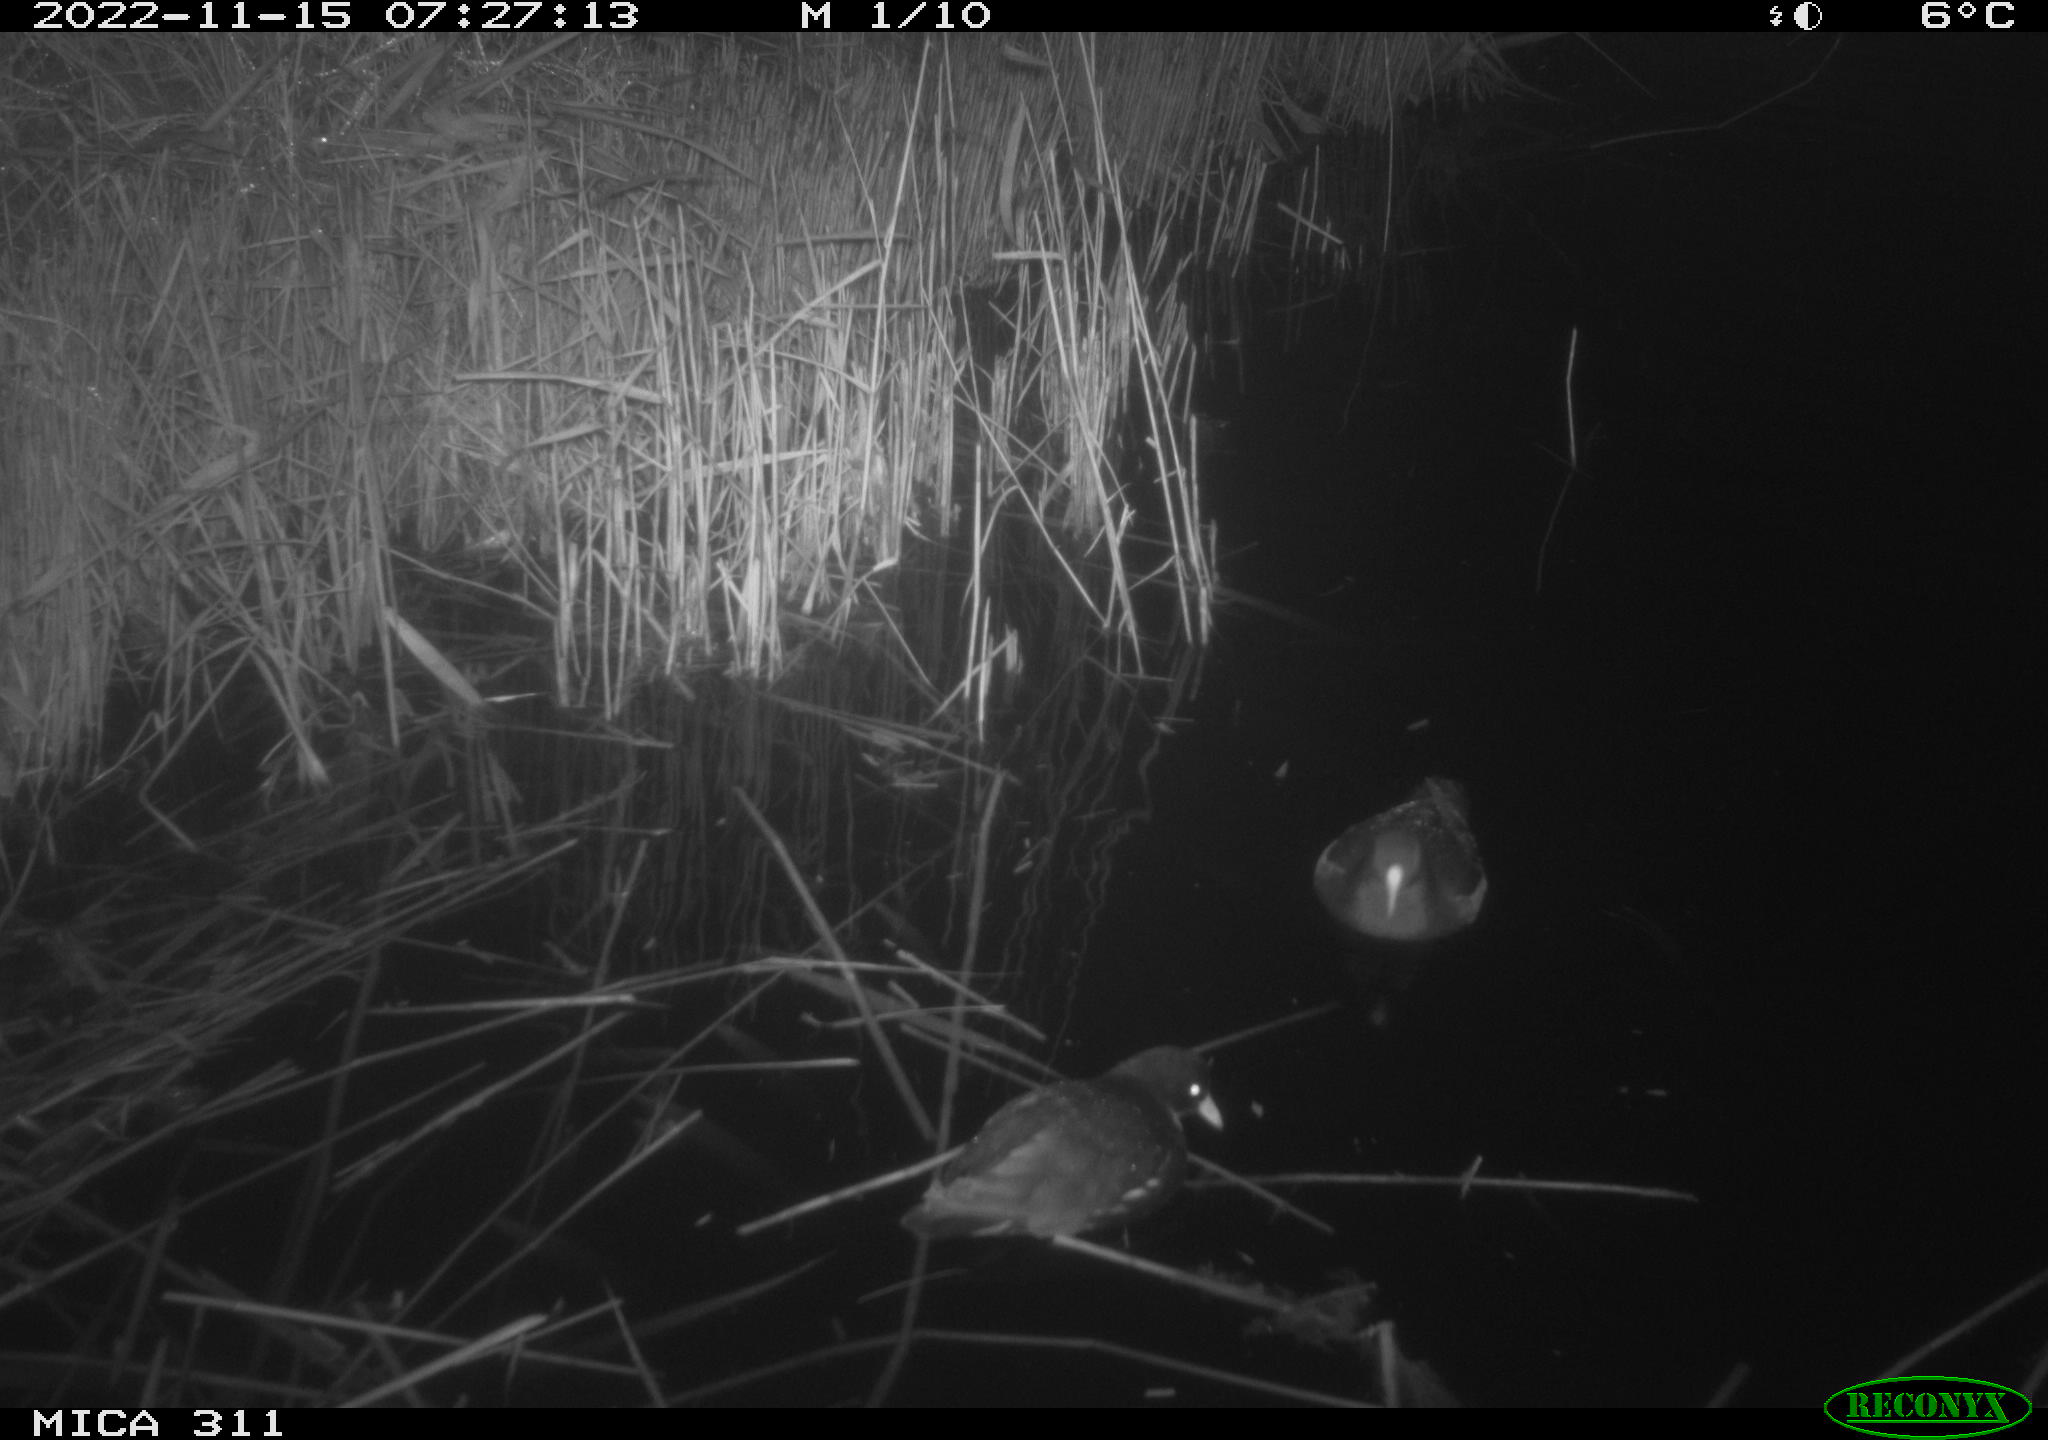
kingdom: Animalia
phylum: Chordata
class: Aves
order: Anseriformes
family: Anatidae
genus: Anas
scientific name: Anas
